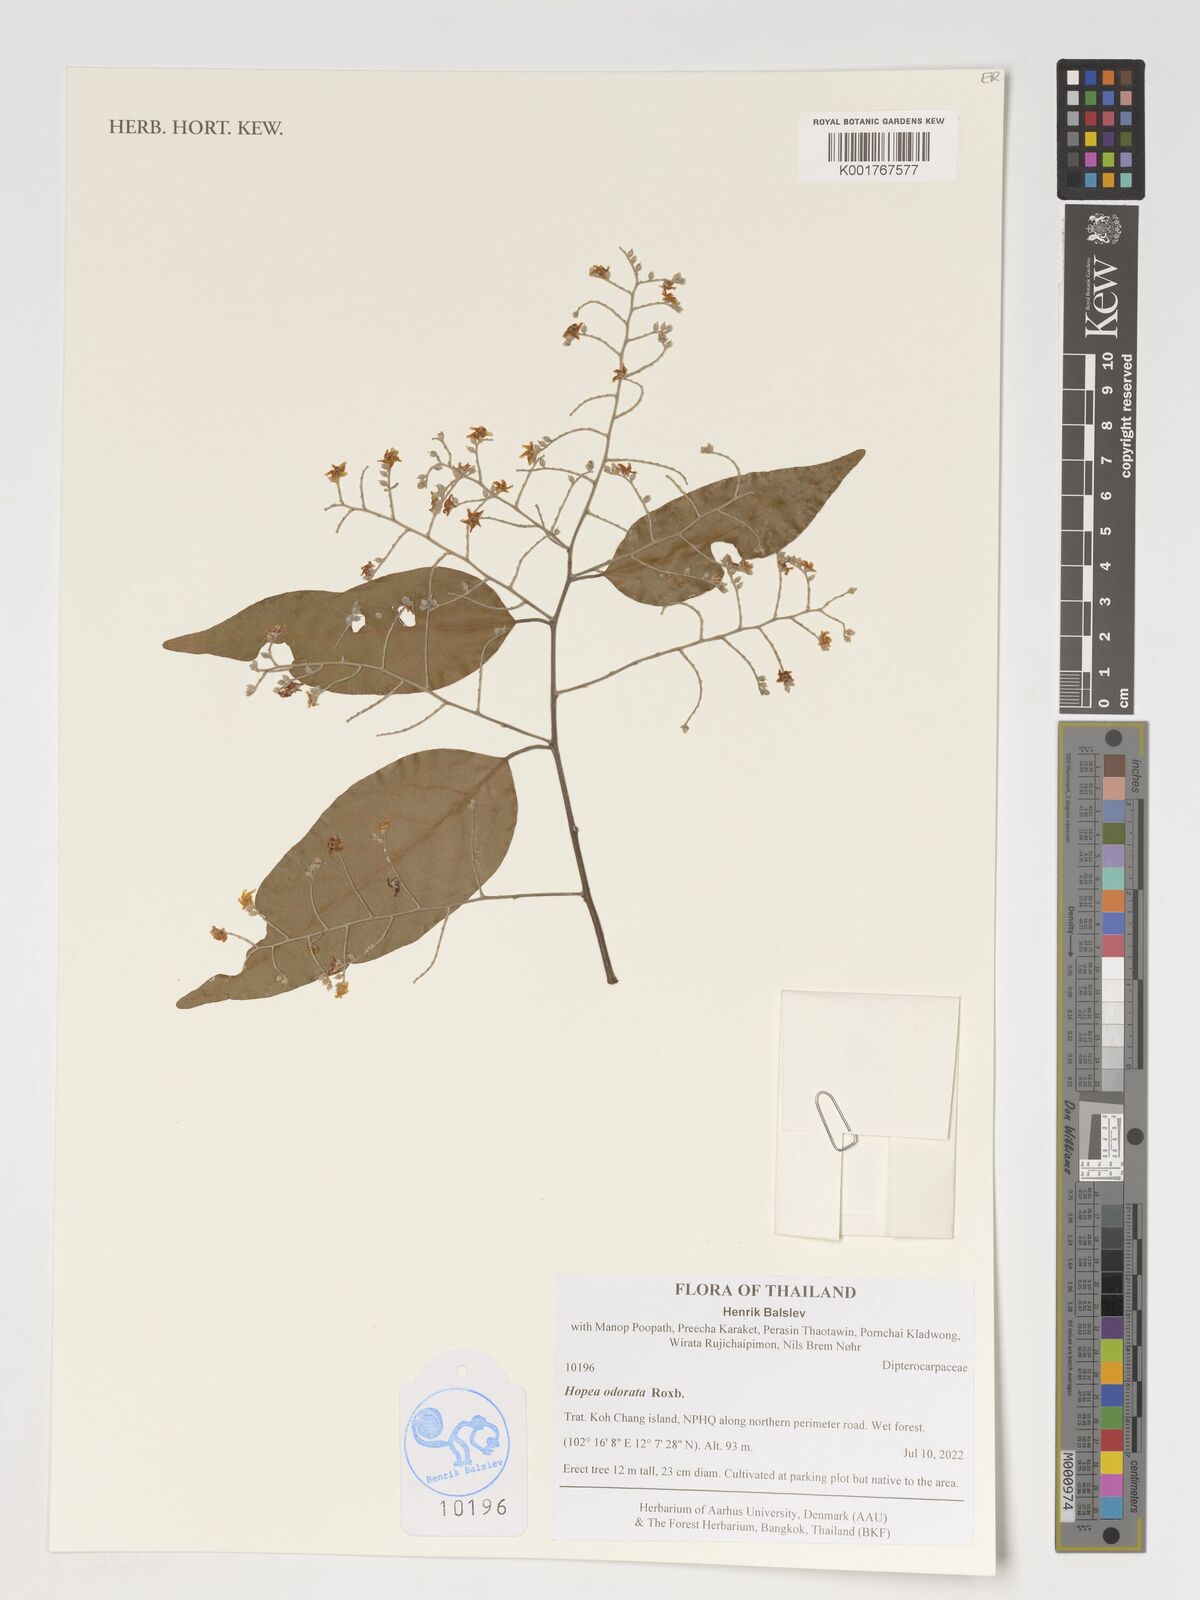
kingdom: Plantae
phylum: Tracheophyta
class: Magnoliopsida
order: Malvales
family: Dipterocarpaceae
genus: Hopea
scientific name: Hopea odorata
